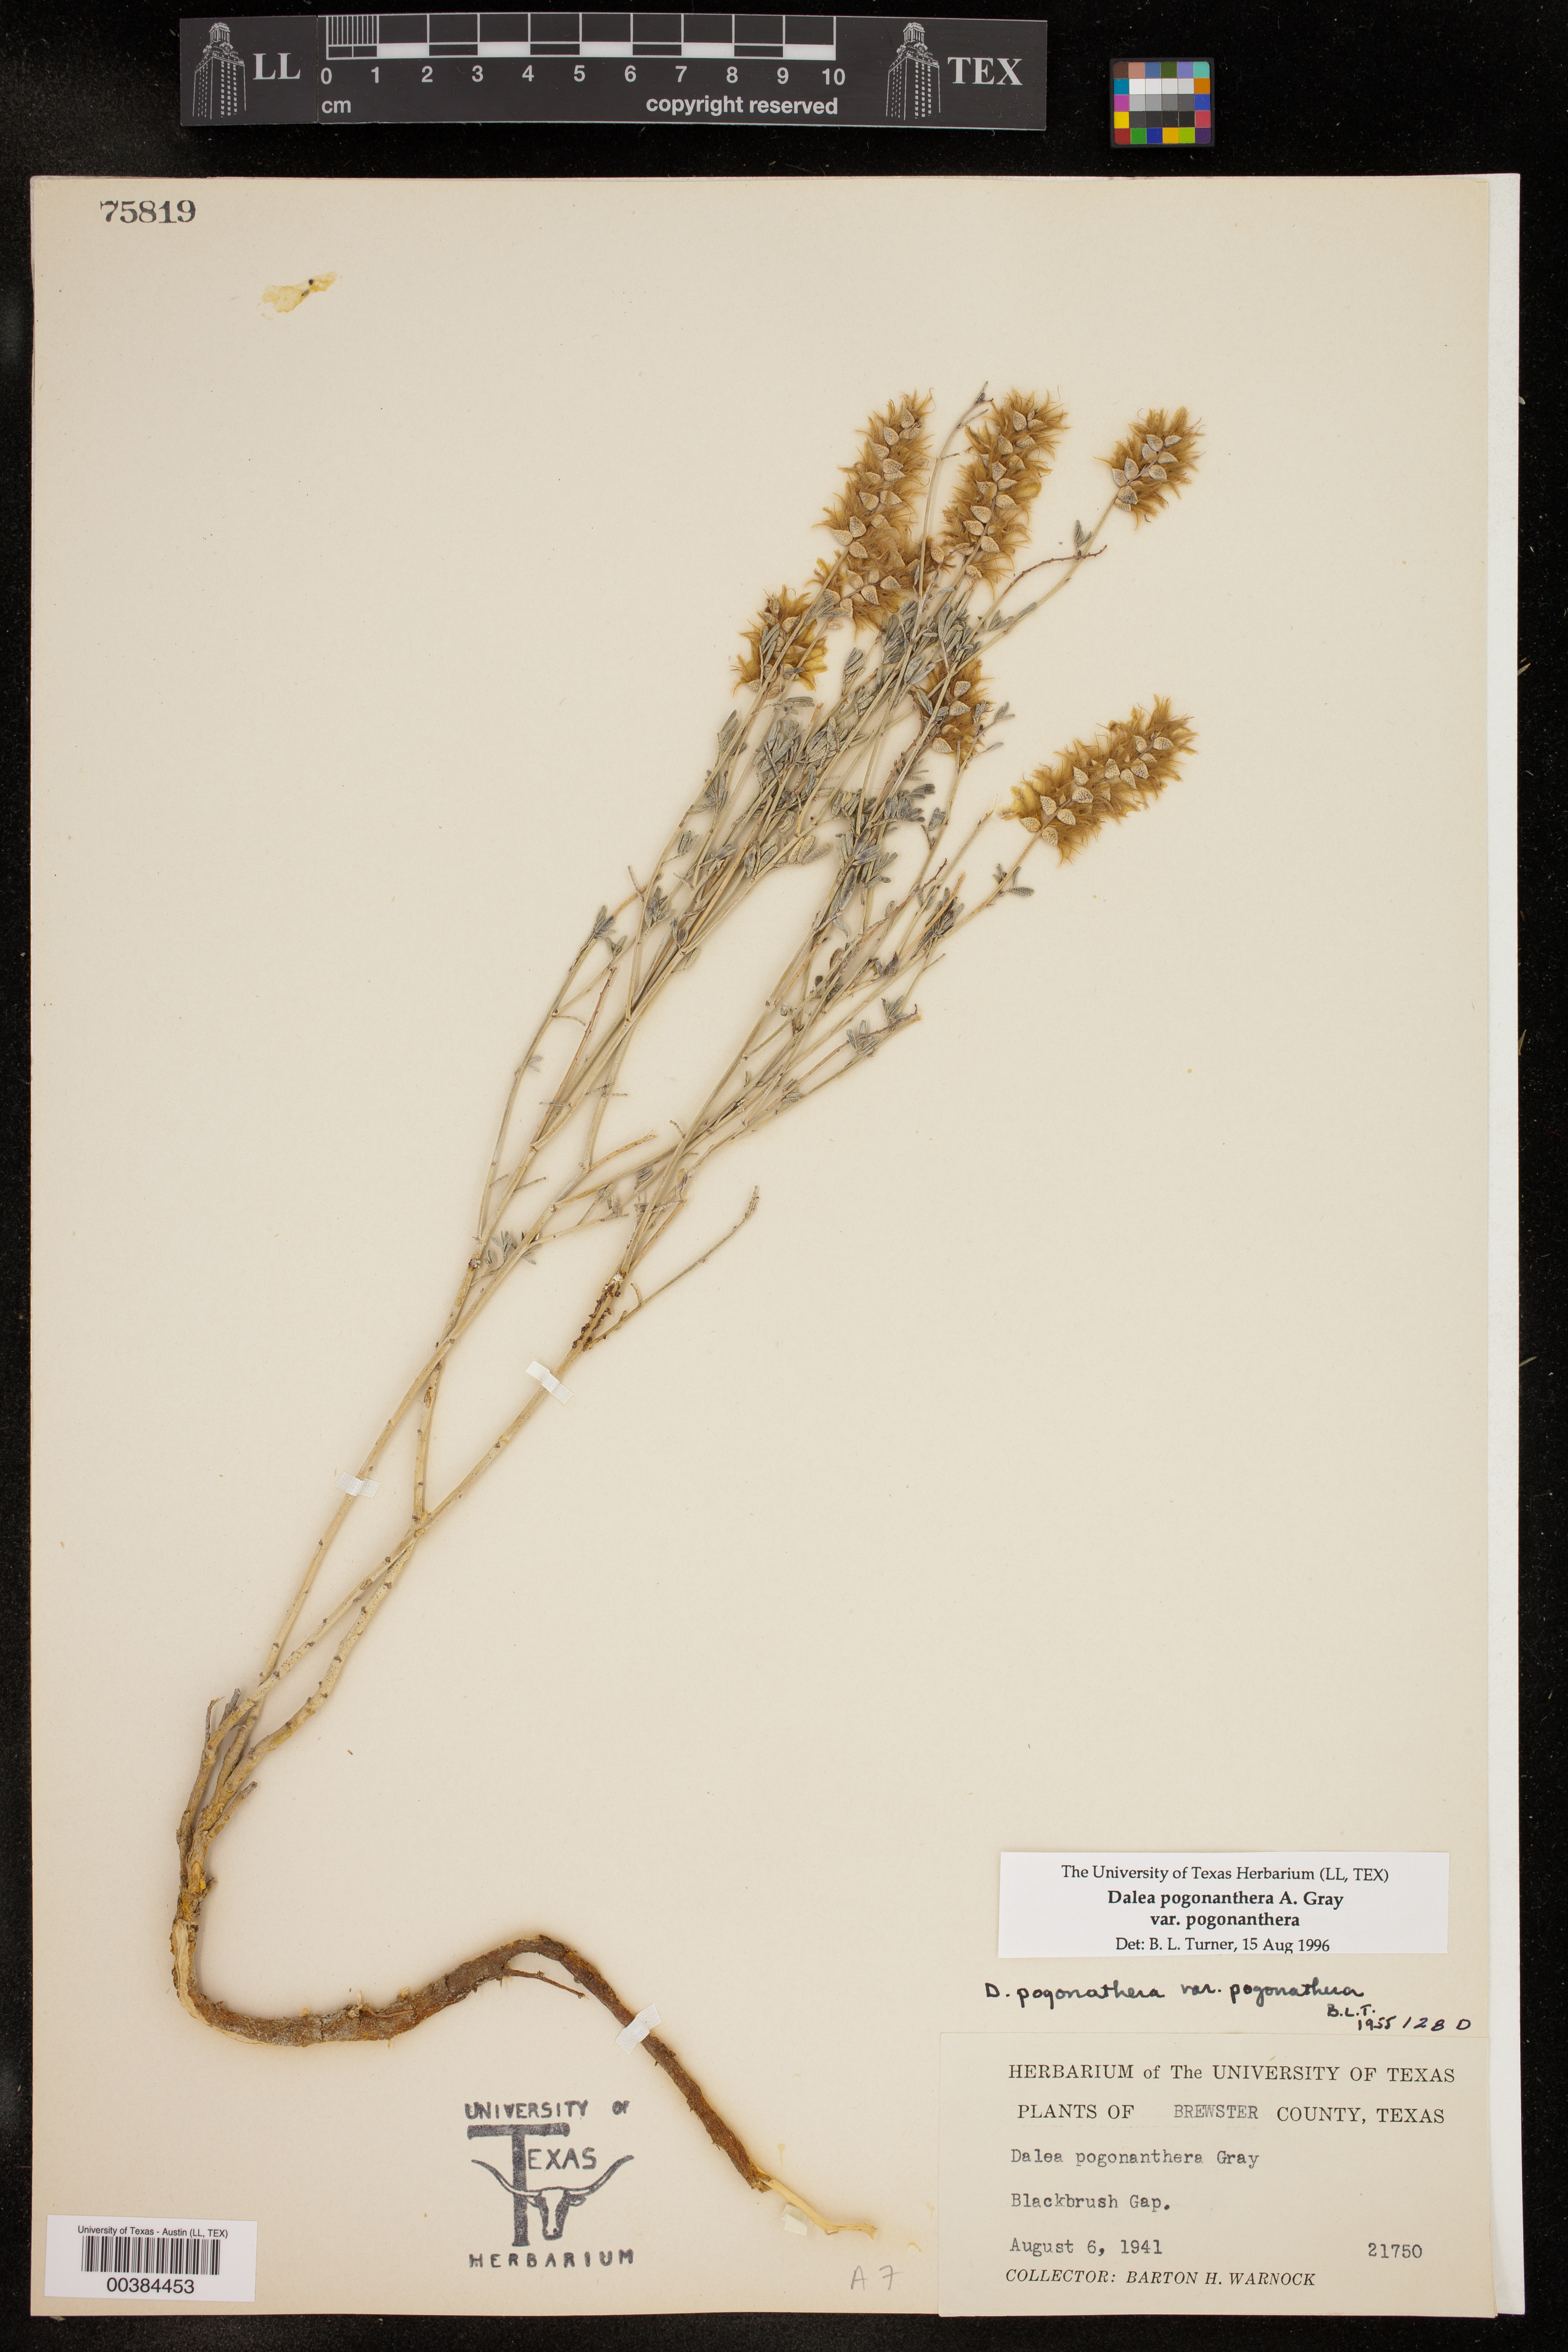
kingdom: Plantae
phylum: Tracheophyta
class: Magnoliopsida
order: Fabales
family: Fabaceae
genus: Dalea
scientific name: Dalea pogonathera
